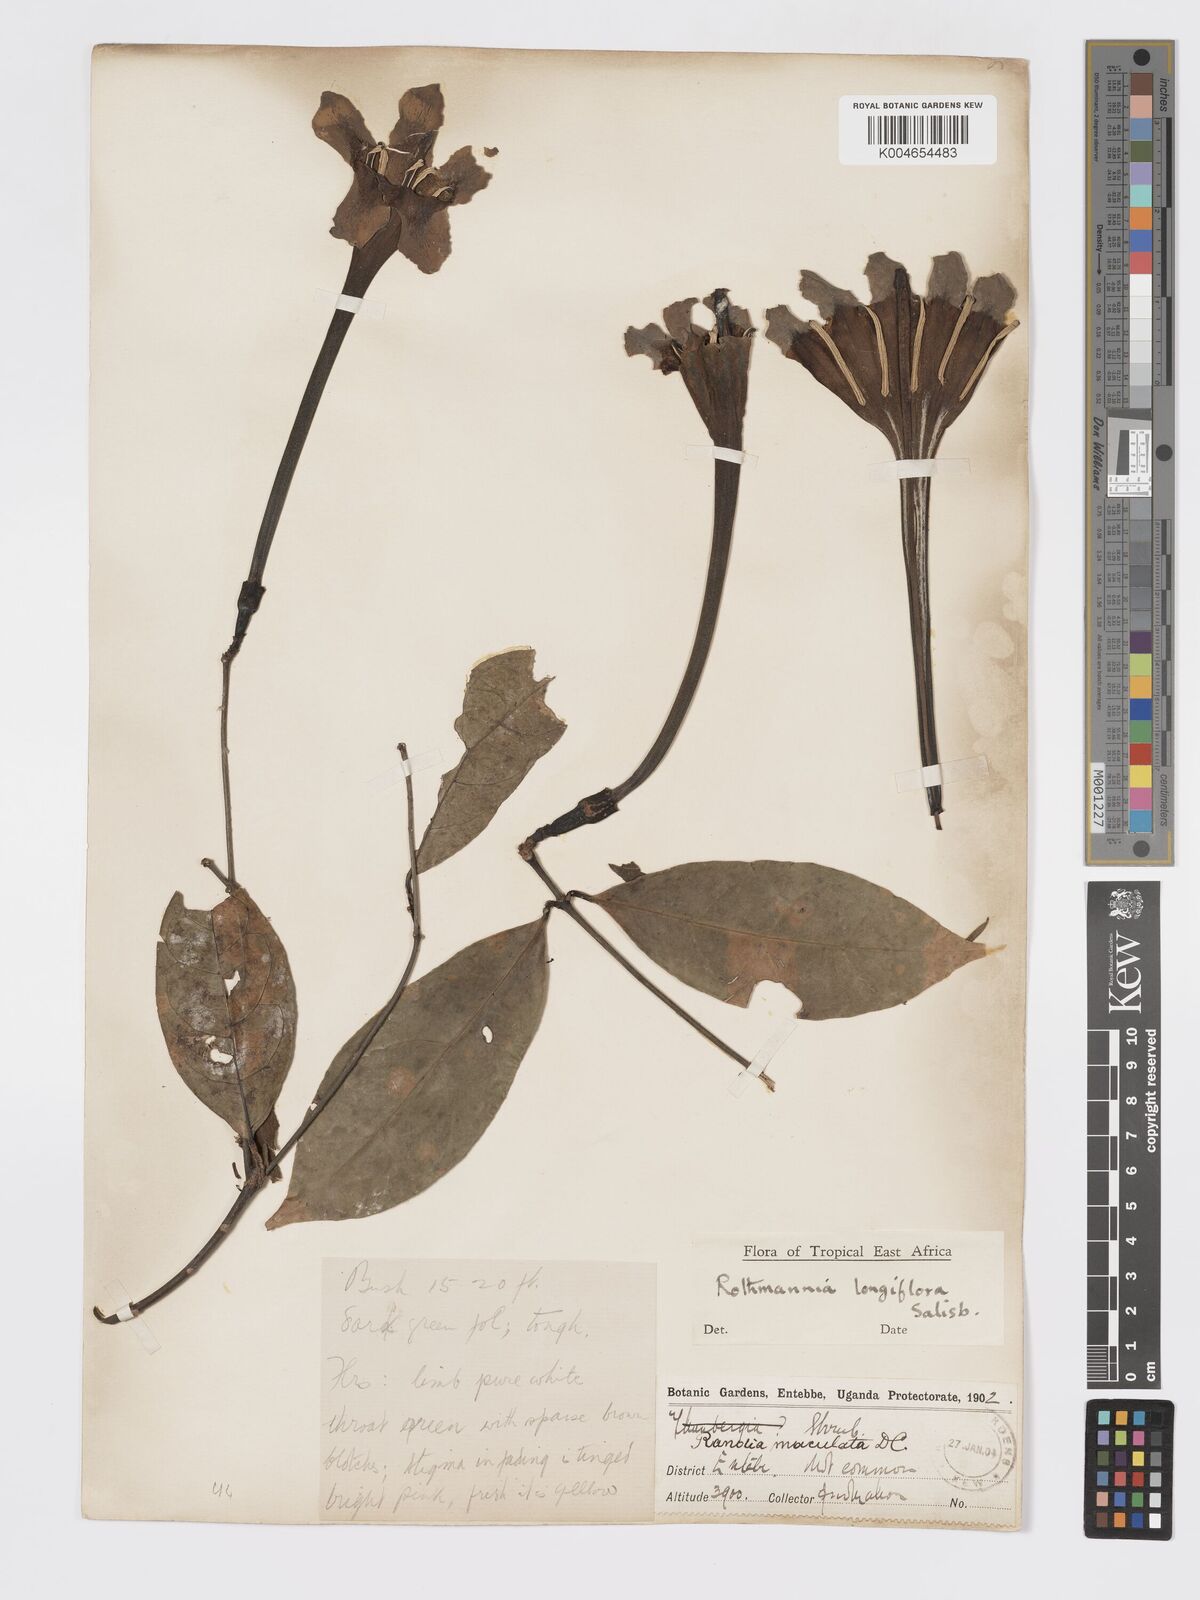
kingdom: Plantae
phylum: Tracheophyta
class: Magnoliopsida
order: Gentianales
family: Rubiaceae
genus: Rothmannia
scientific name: Rothmannia longiflora
